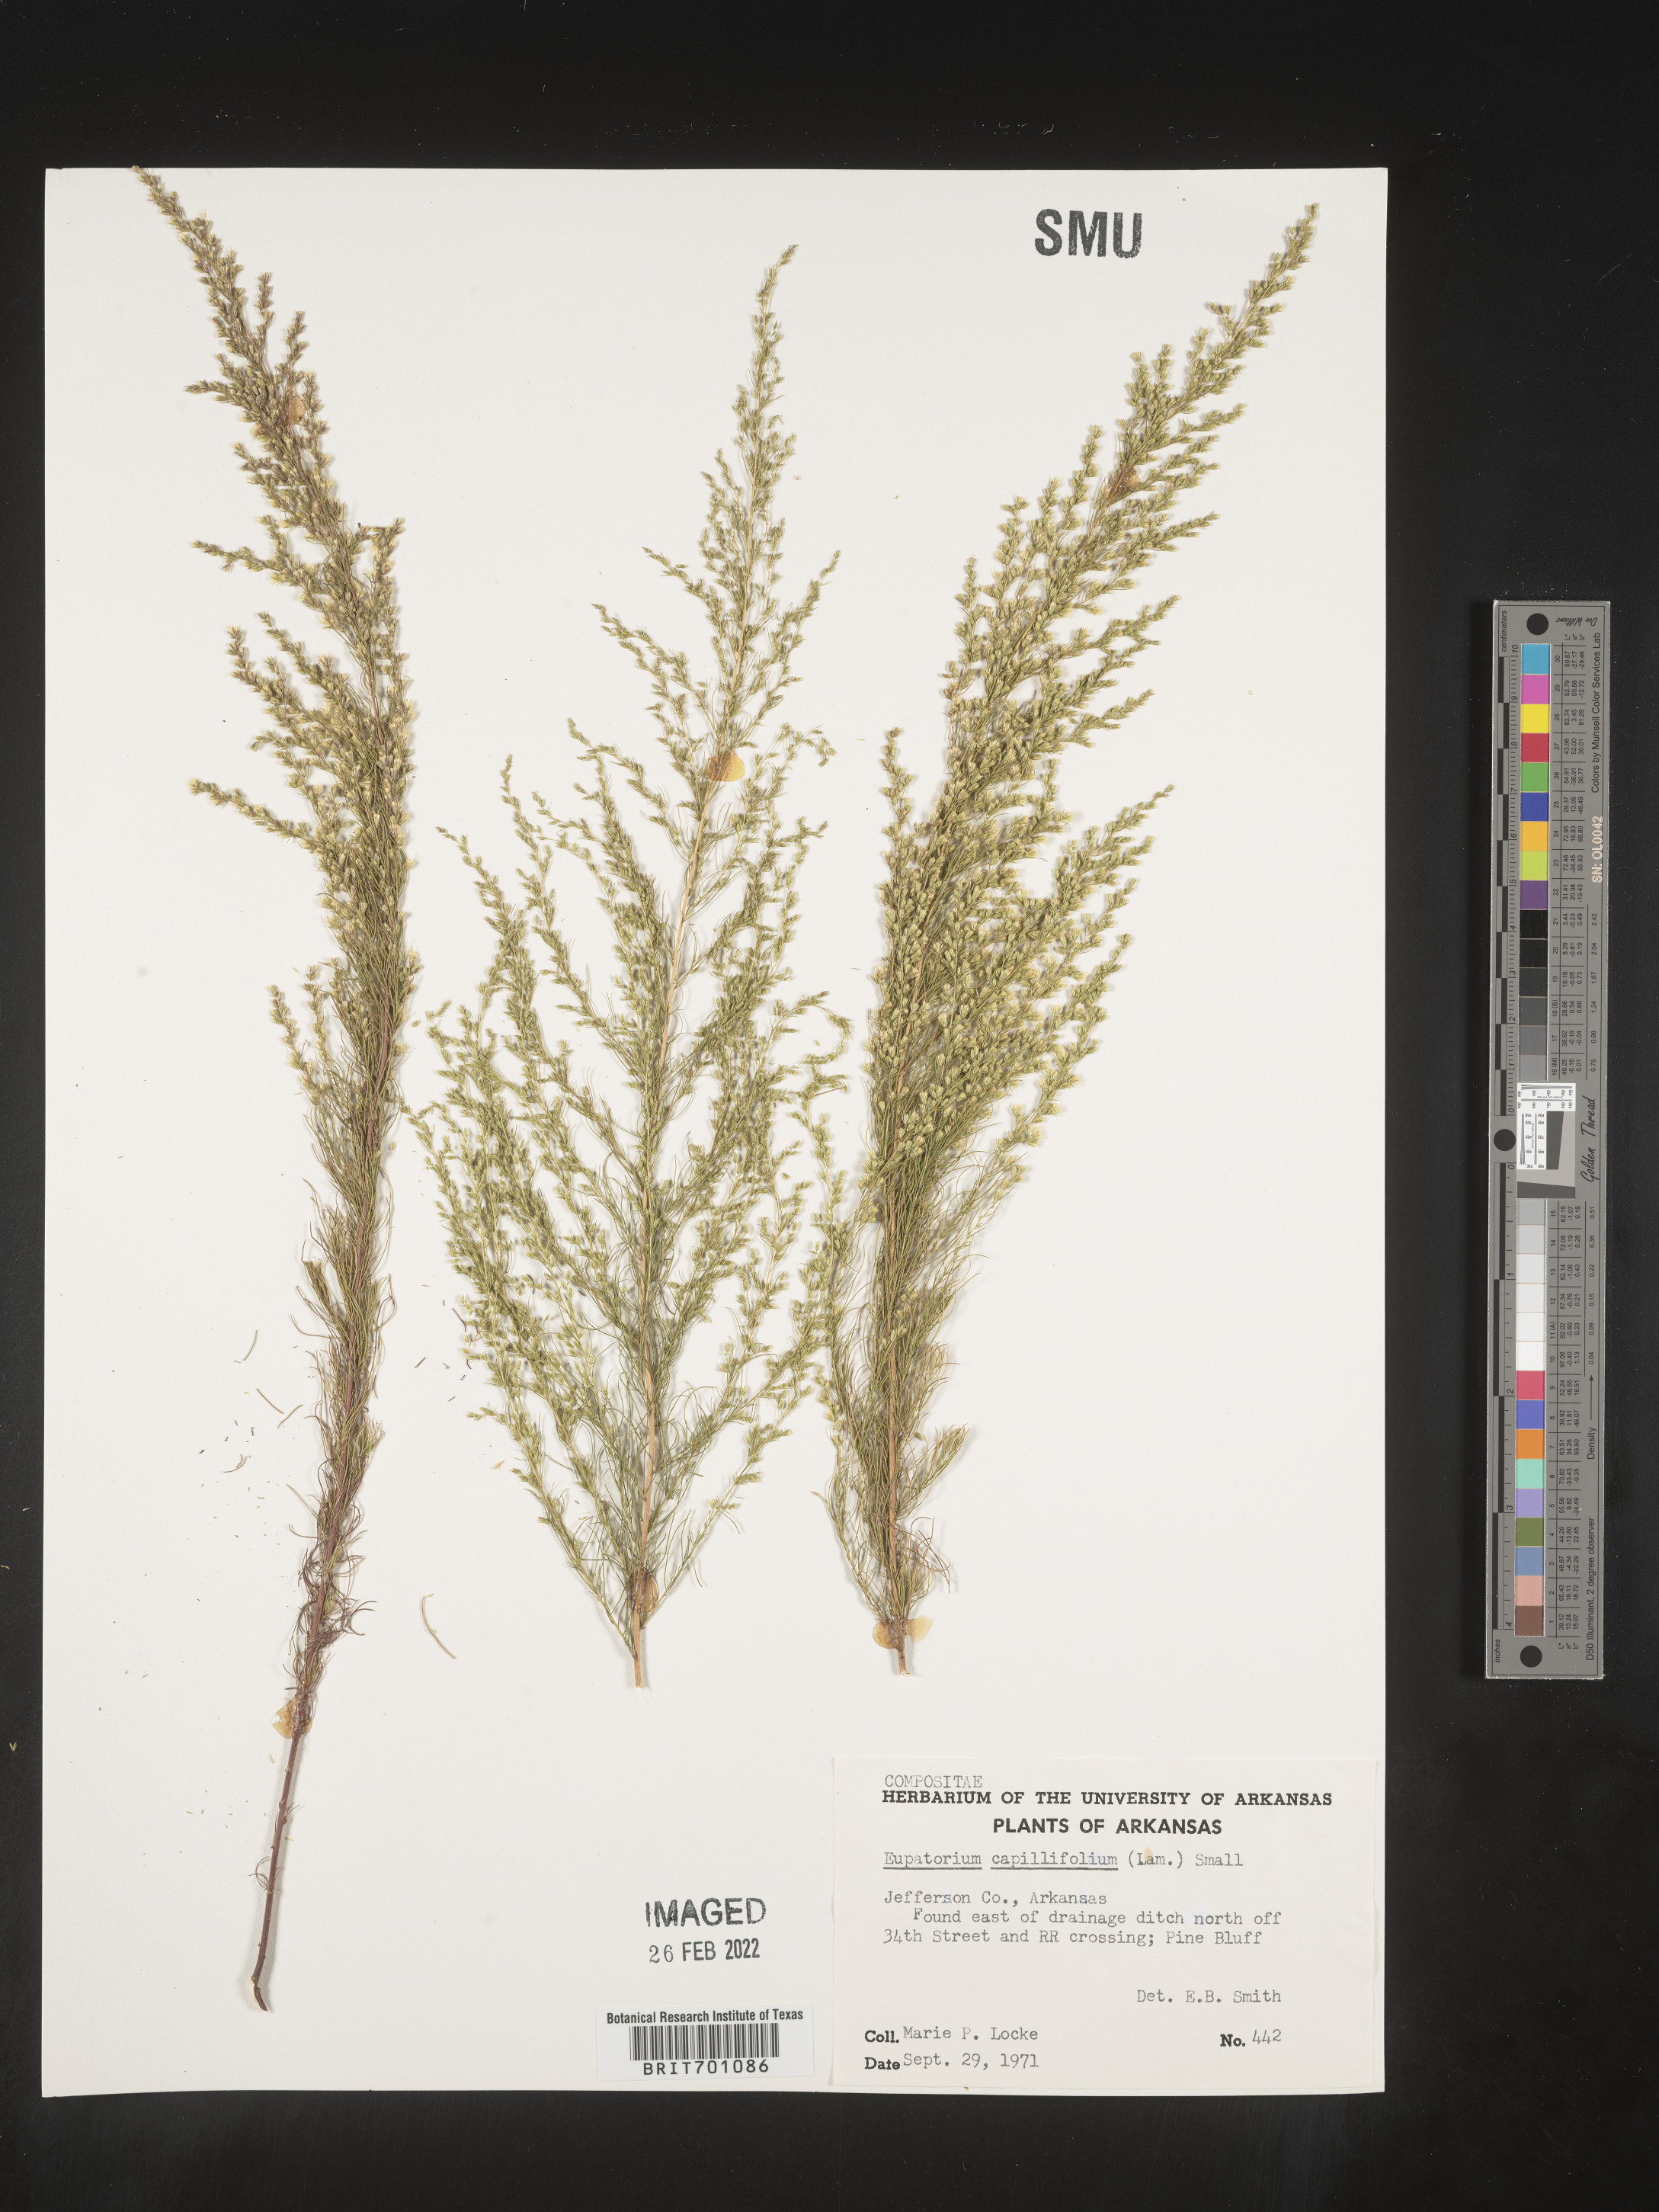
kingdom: Plantae
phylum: Tracheophyta
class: Magnoliopsida
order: Asterales
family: Asteraceae
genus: Eupatorium
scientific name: Eupatorium capillifolium
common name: Dog-fennel
